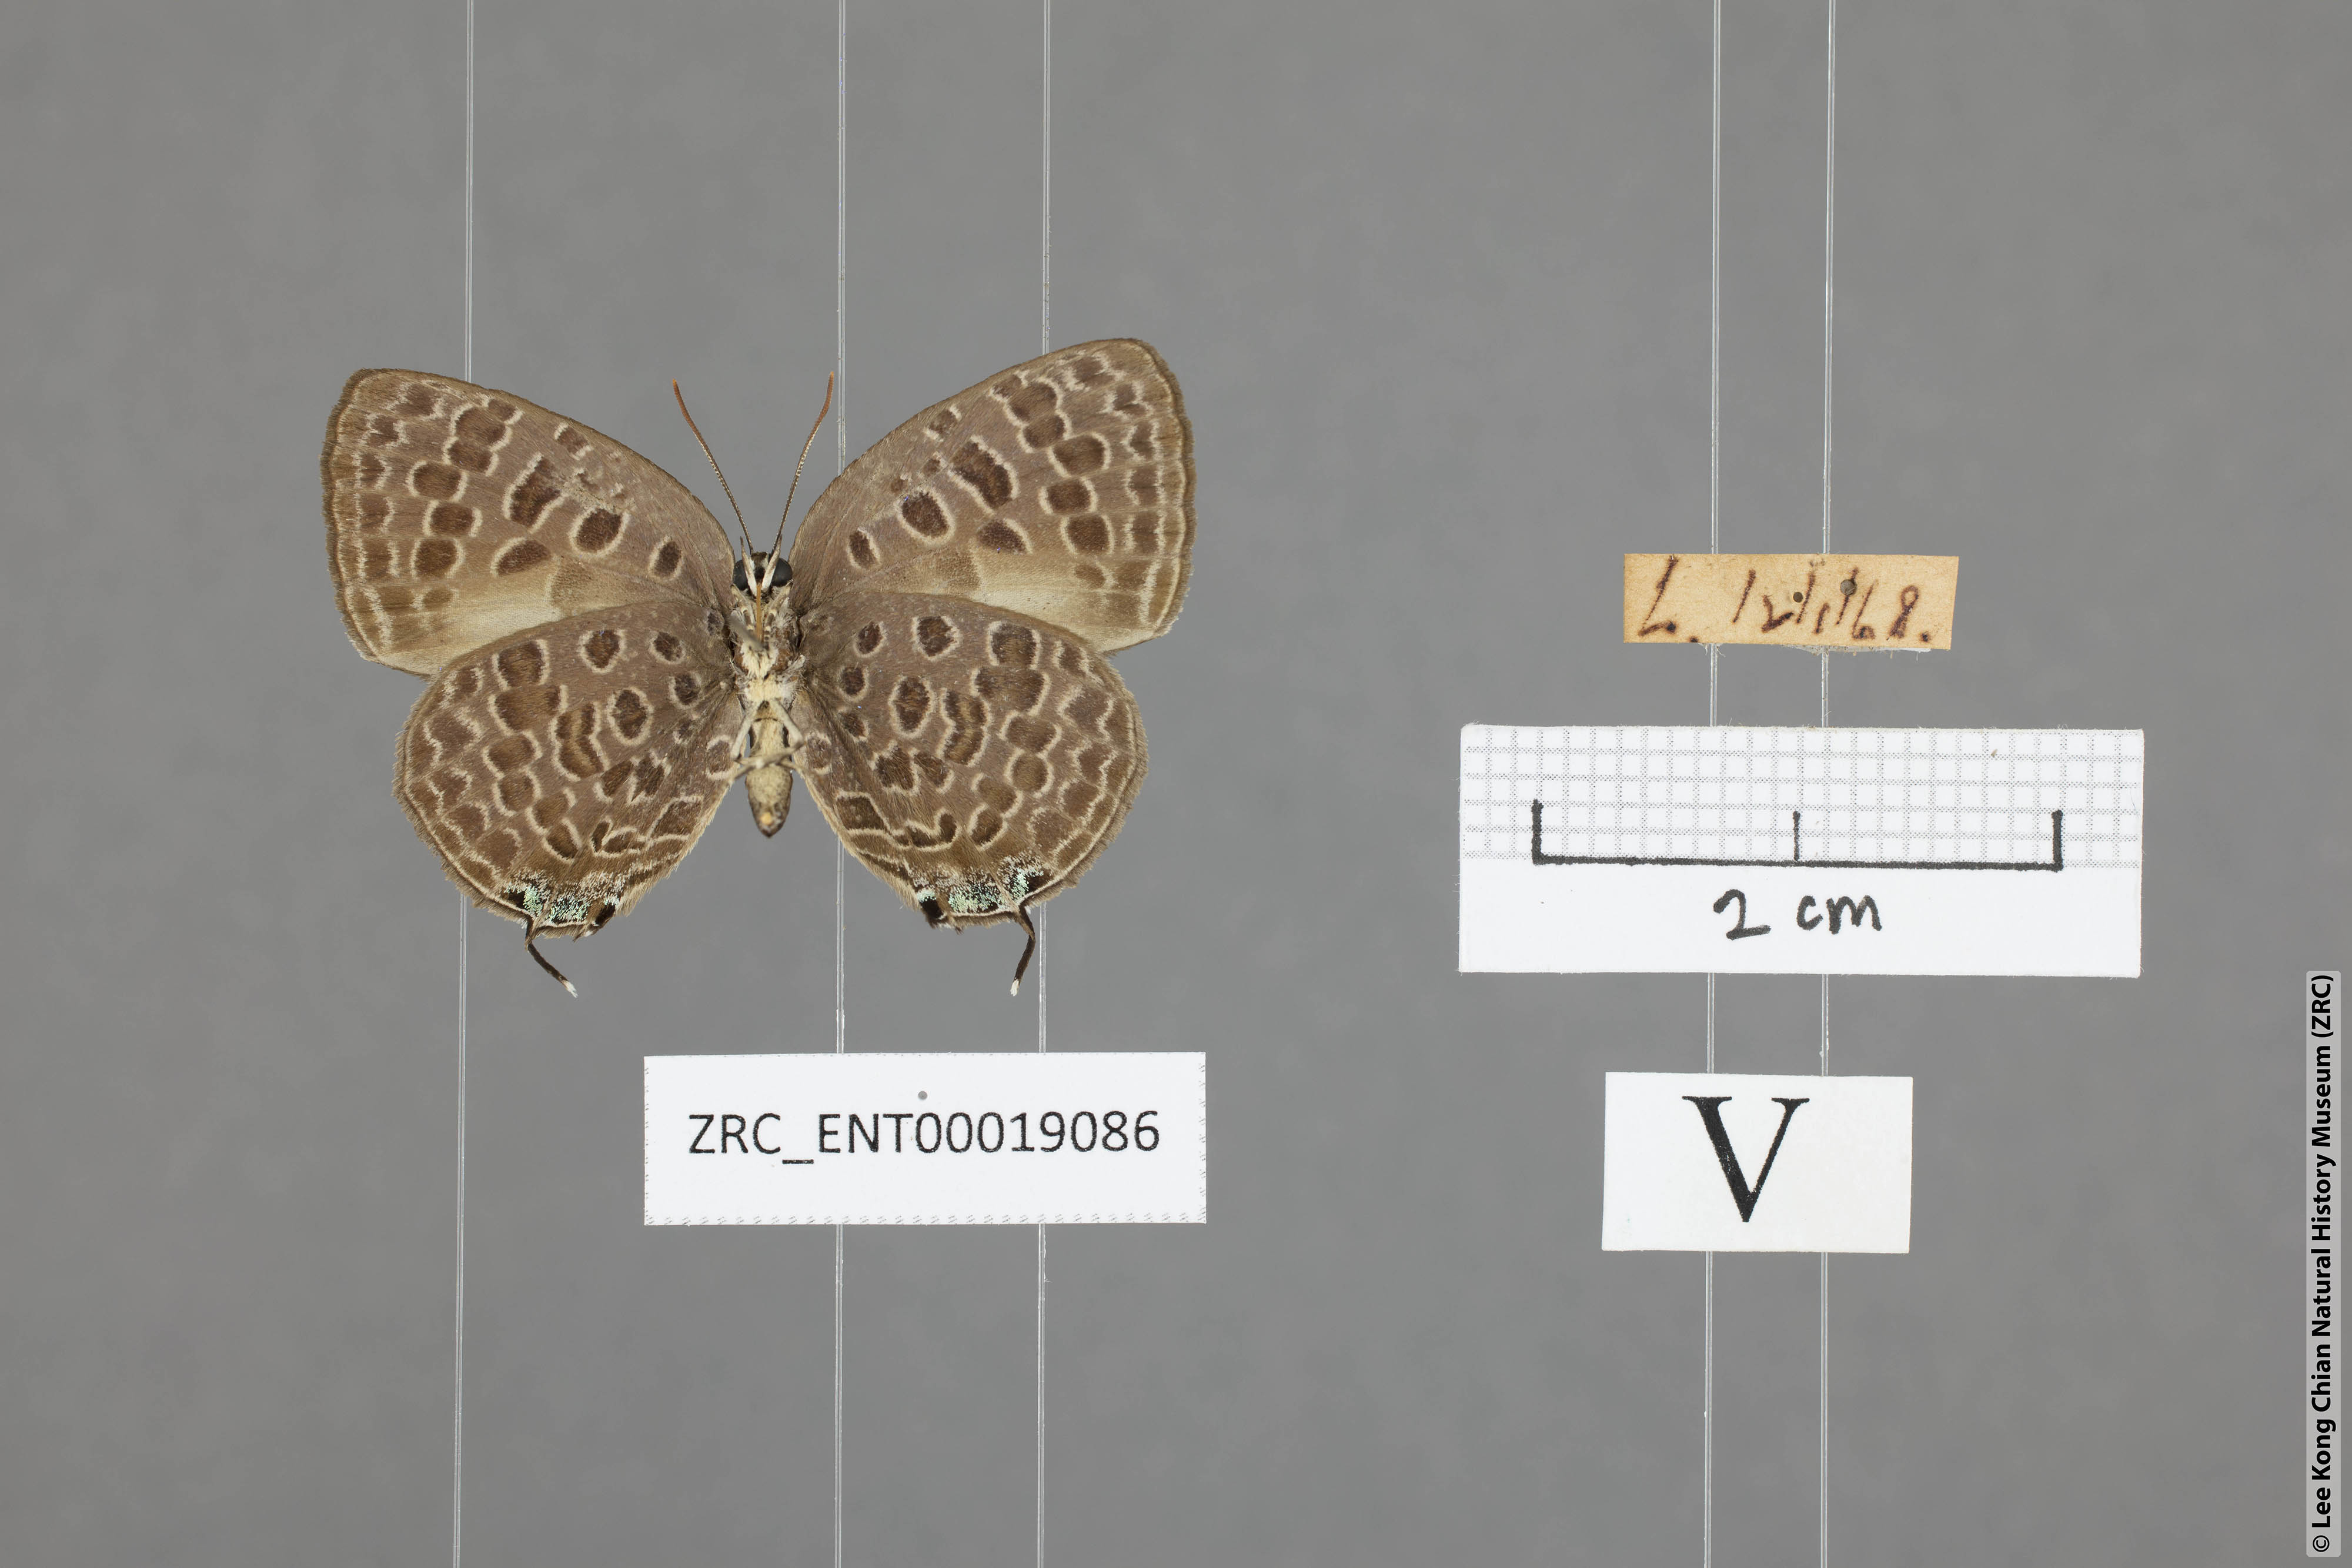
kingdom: Animalia
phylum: Arthropoda
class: Insecta
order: Lepidoptera
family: Lycaenidae
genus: Arhopala
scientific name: Arhopala alitaeus
